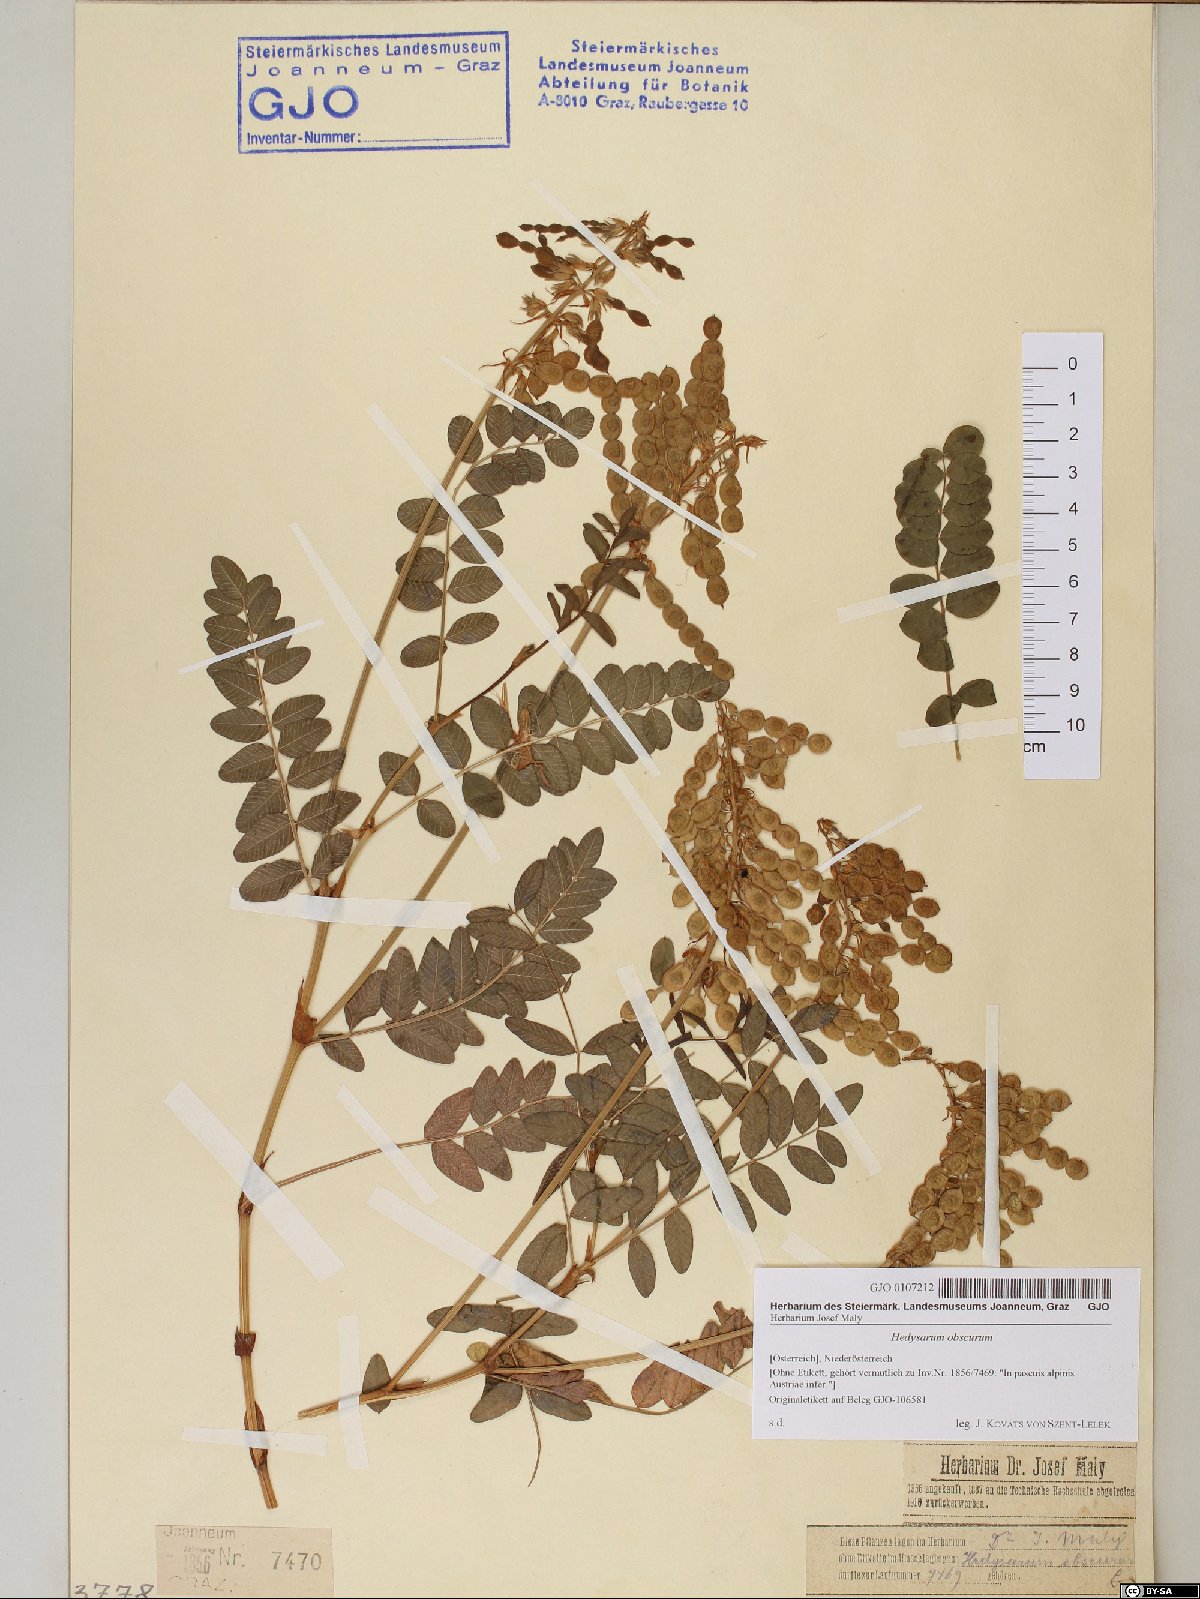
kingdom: Plantae
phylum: Tracheophyta
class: Magnoliopsida
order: Fabales
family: Fabaceae
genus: Hedysarum
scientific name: Hedysarum hedysaroides
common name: Alpine french-honeysuckle
